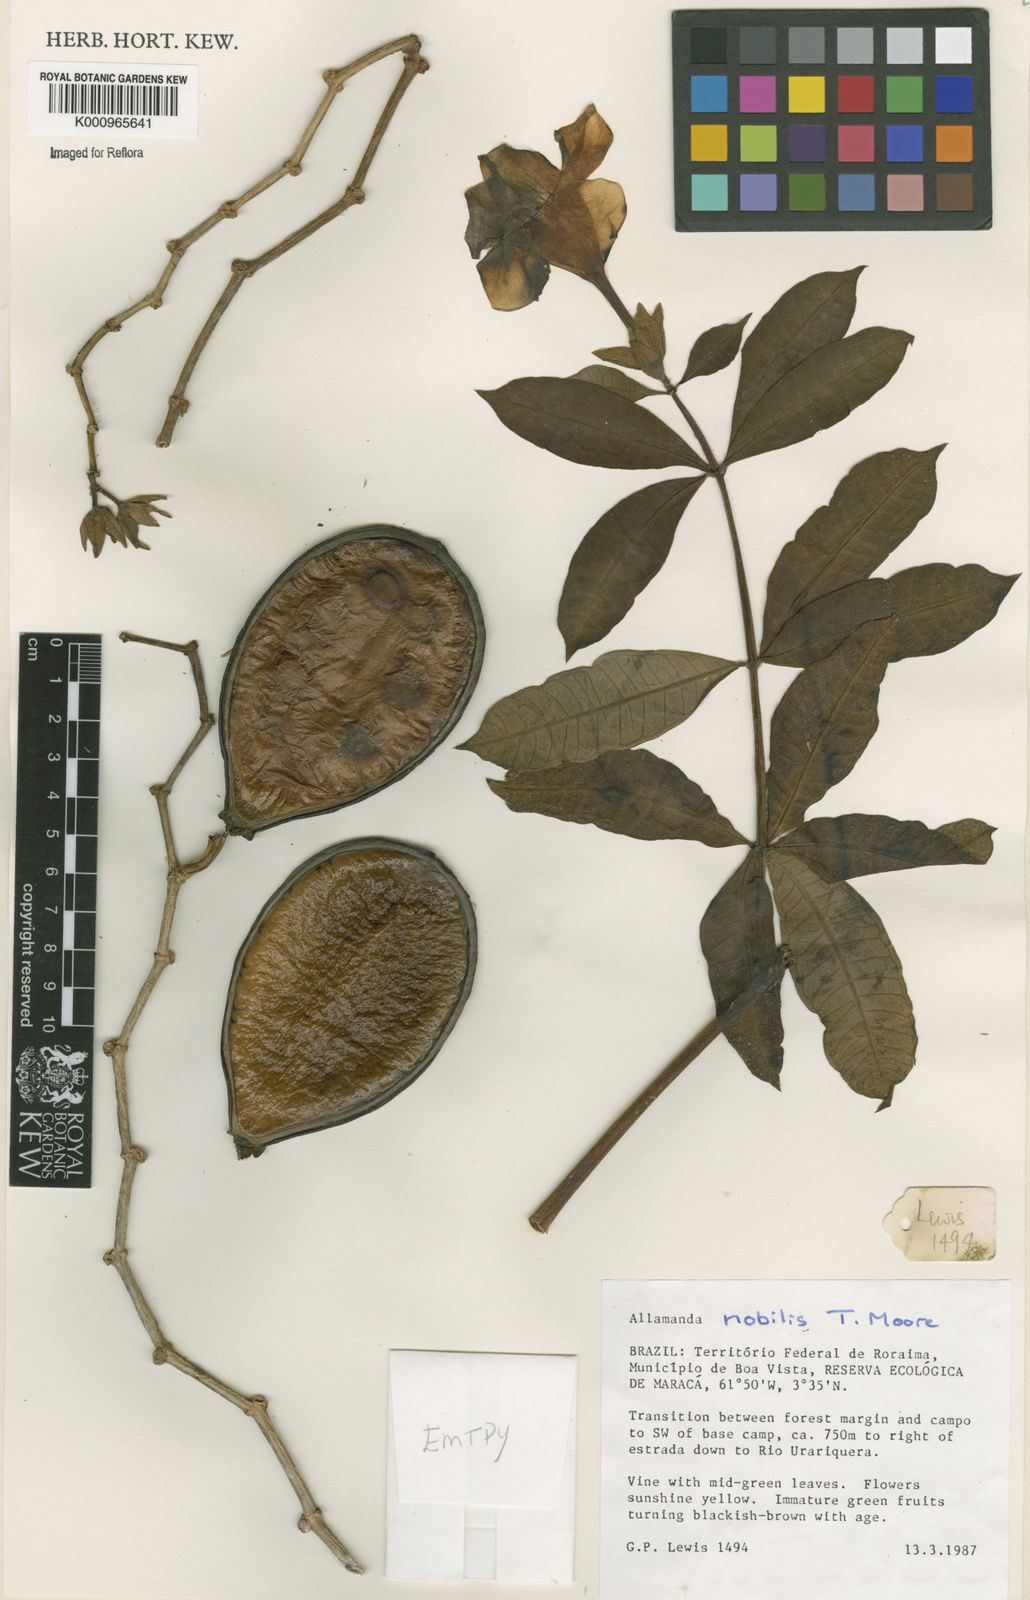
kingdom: Plantae
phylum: Tracheophyta
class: Magnoliopsida
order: Gentianales
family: Apocynaceae
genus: Allamanda
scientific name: Allamanda nobilis
